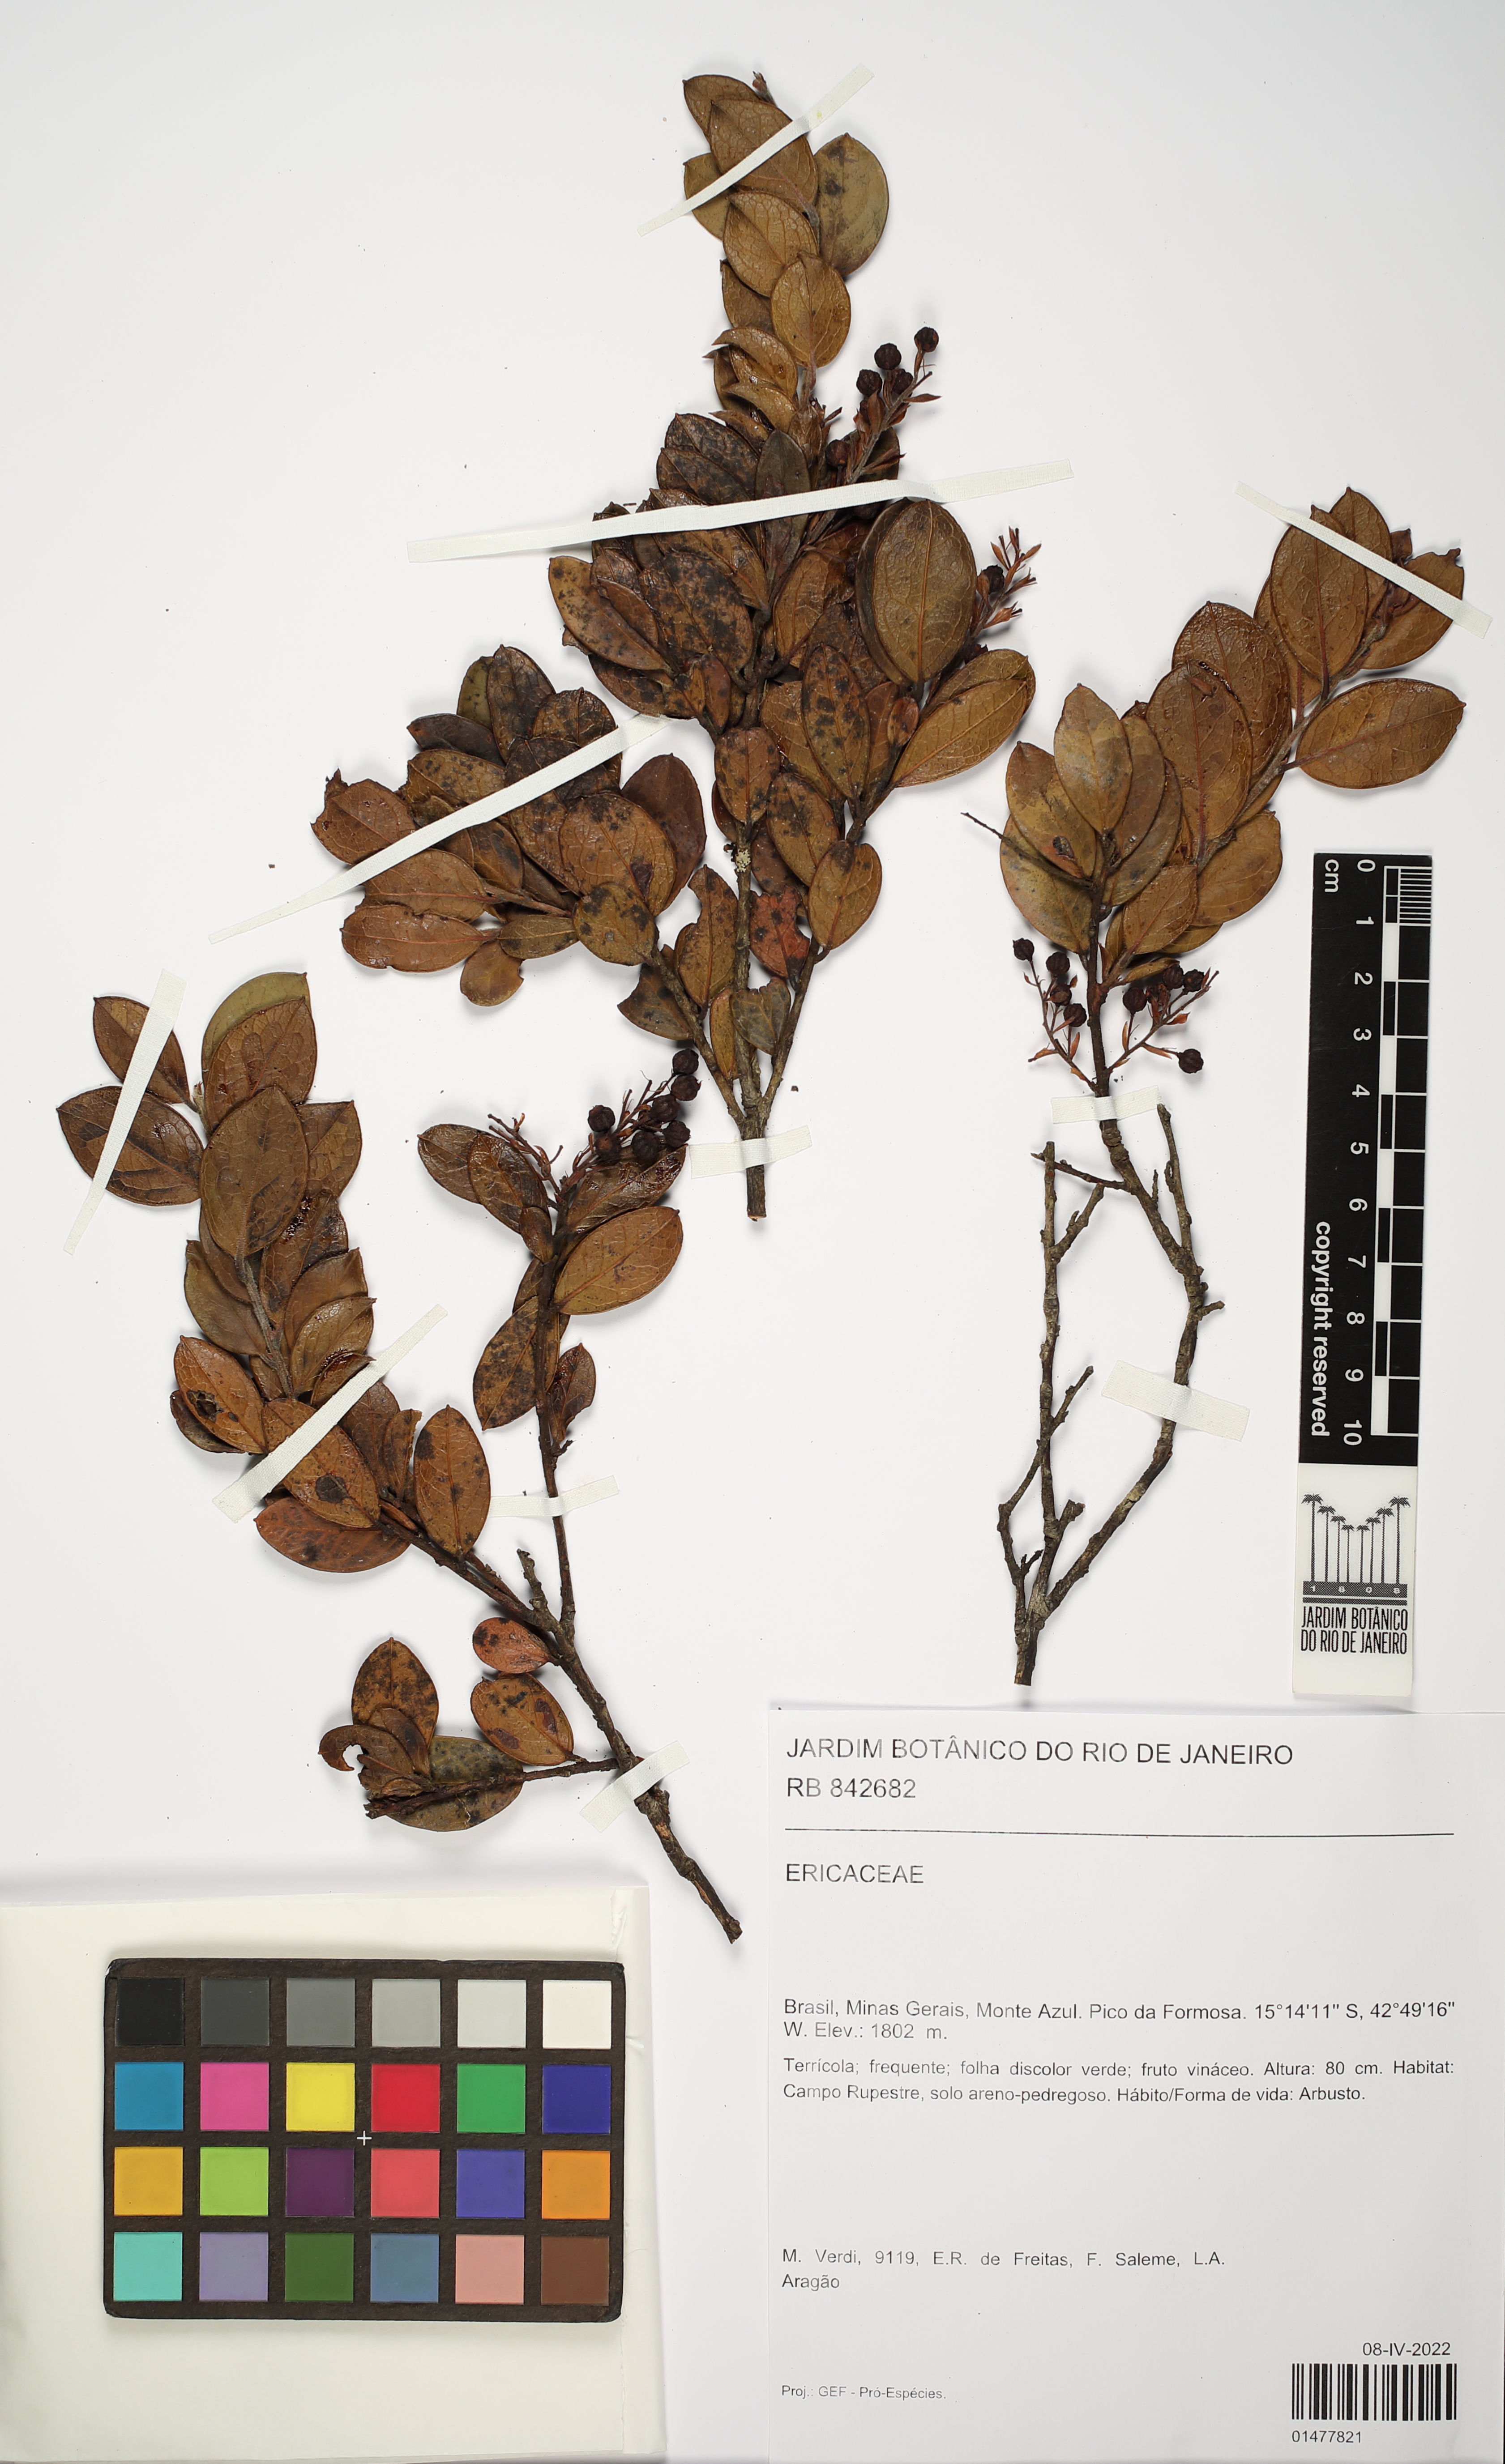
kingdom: Plantae
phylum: Tracheophyta
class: Magnoliopsida
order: Ericales
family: Ericaceae
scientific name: Ericaceae
